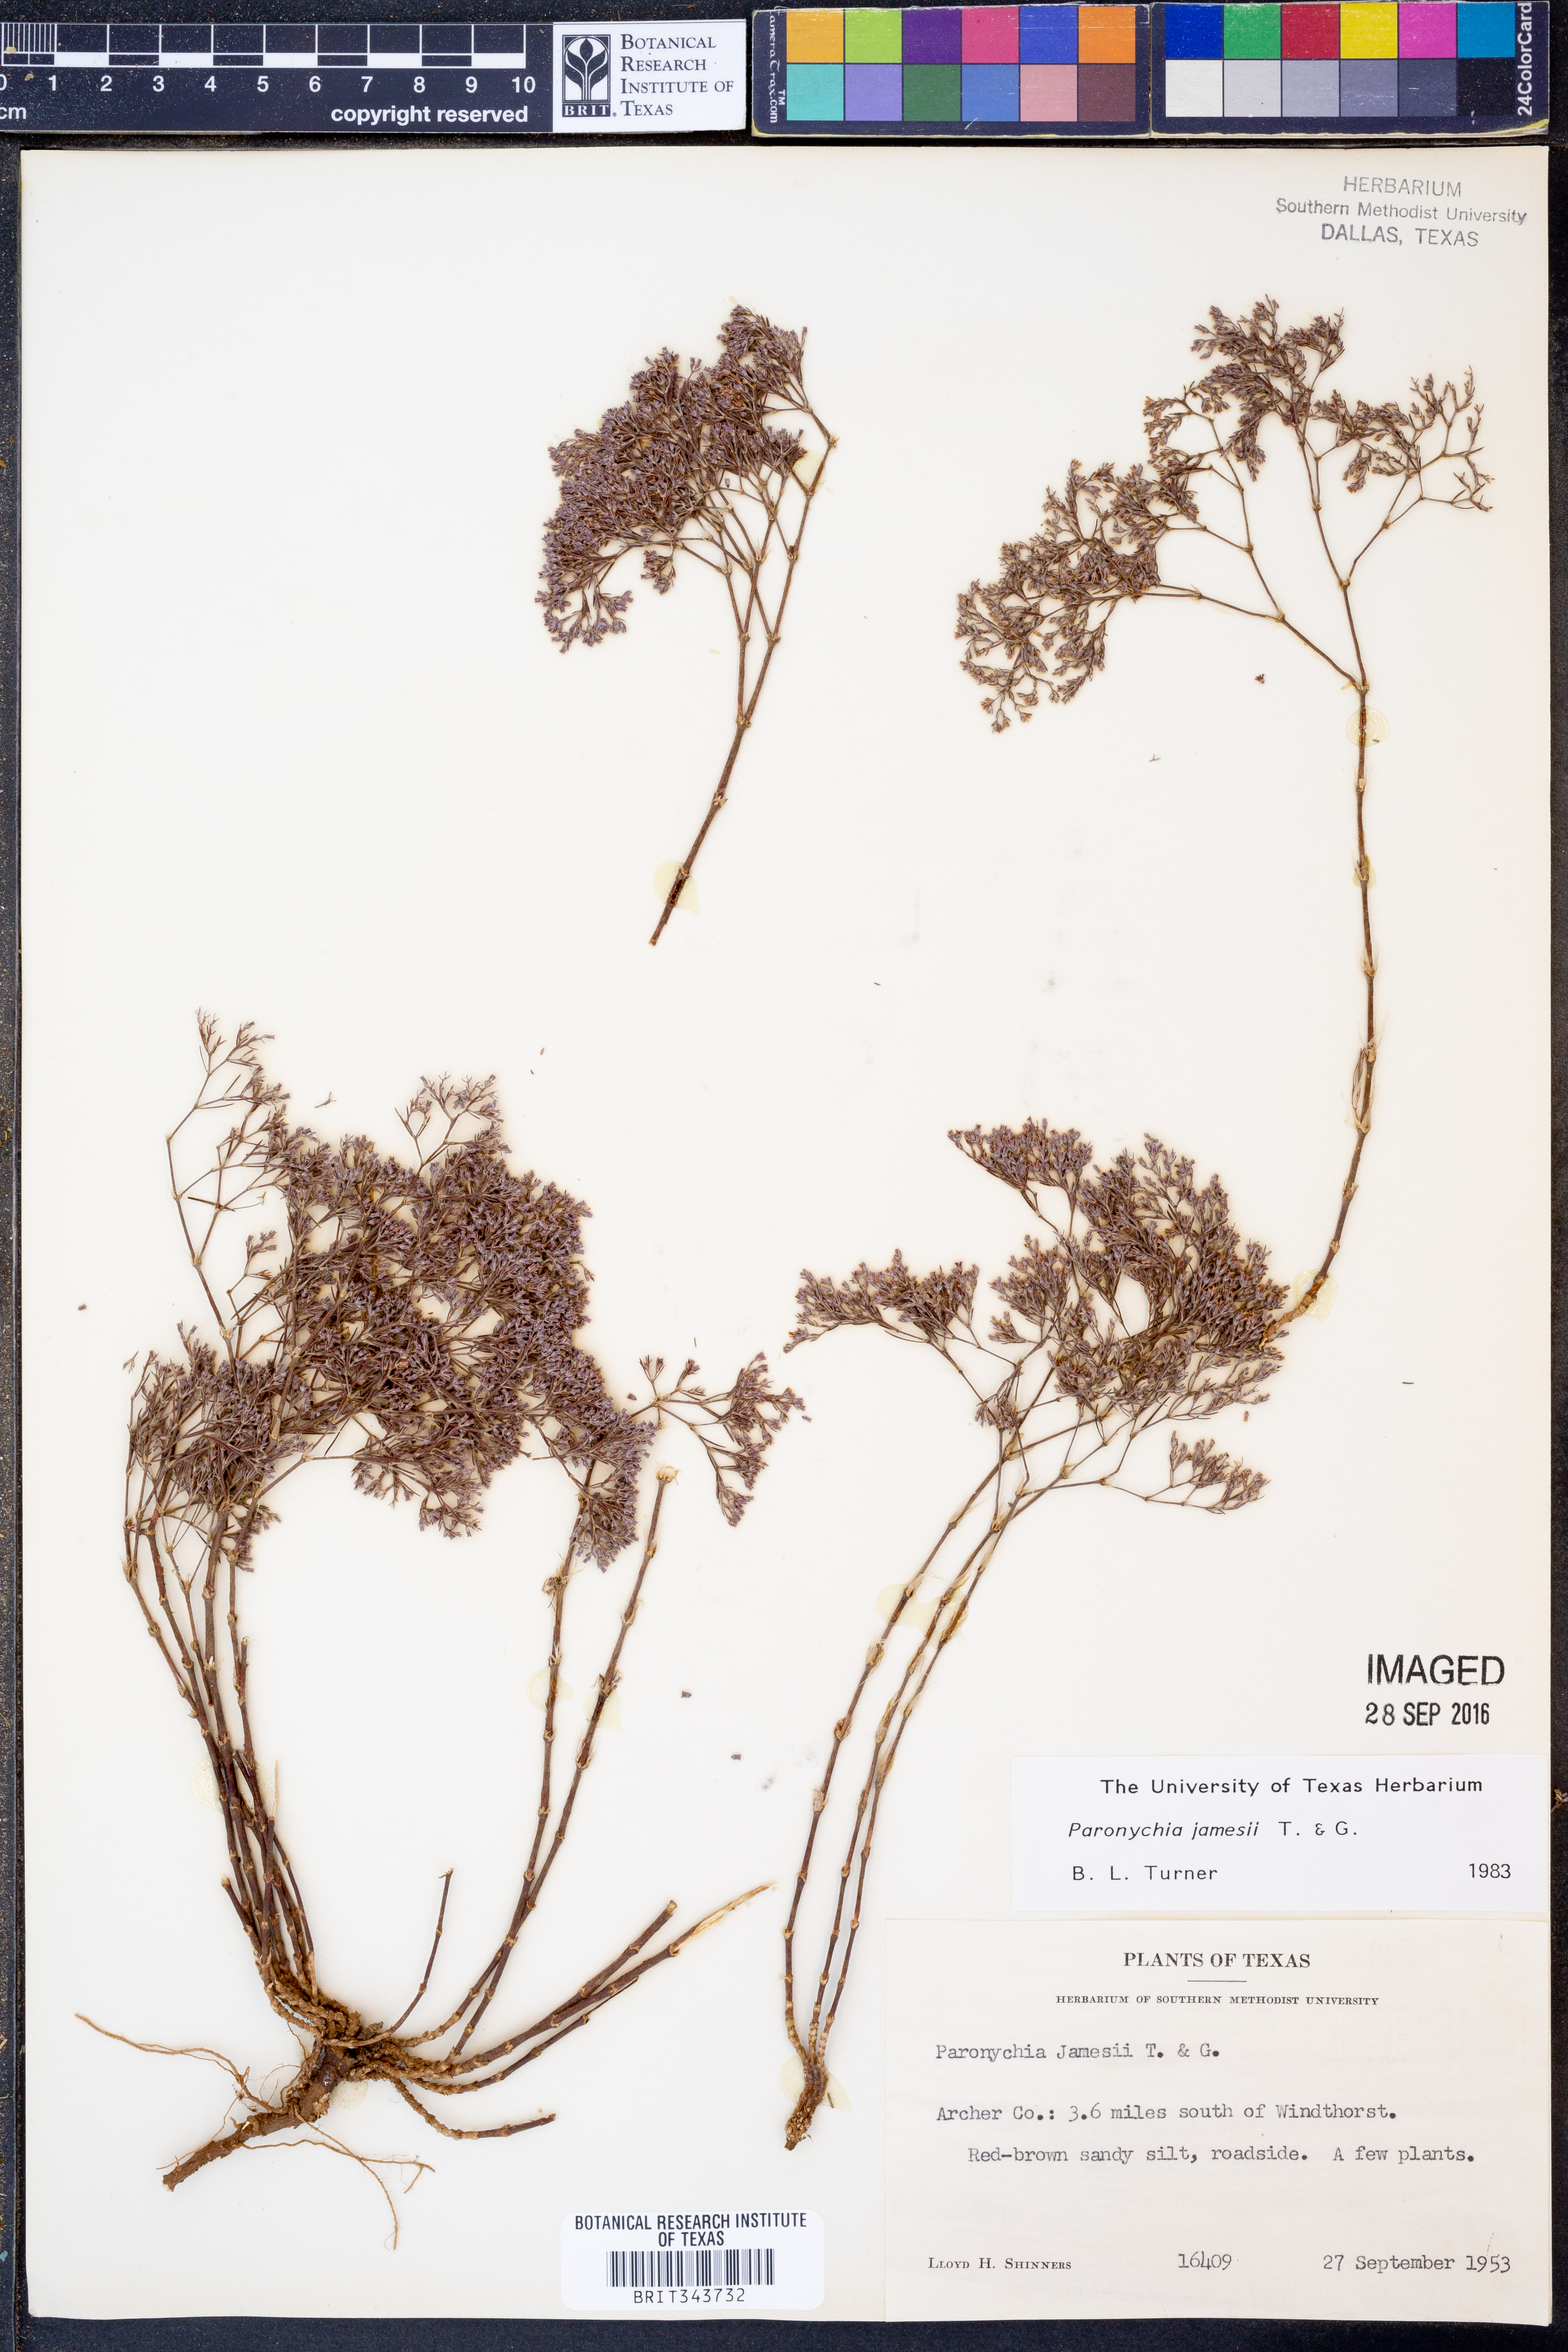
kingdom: Plantae
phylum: Tracheophyta
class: Magnoliopsida
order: Caryophyllales
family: Caryophyllaceae
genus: Paronychia
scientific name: Paronychia jamesii
